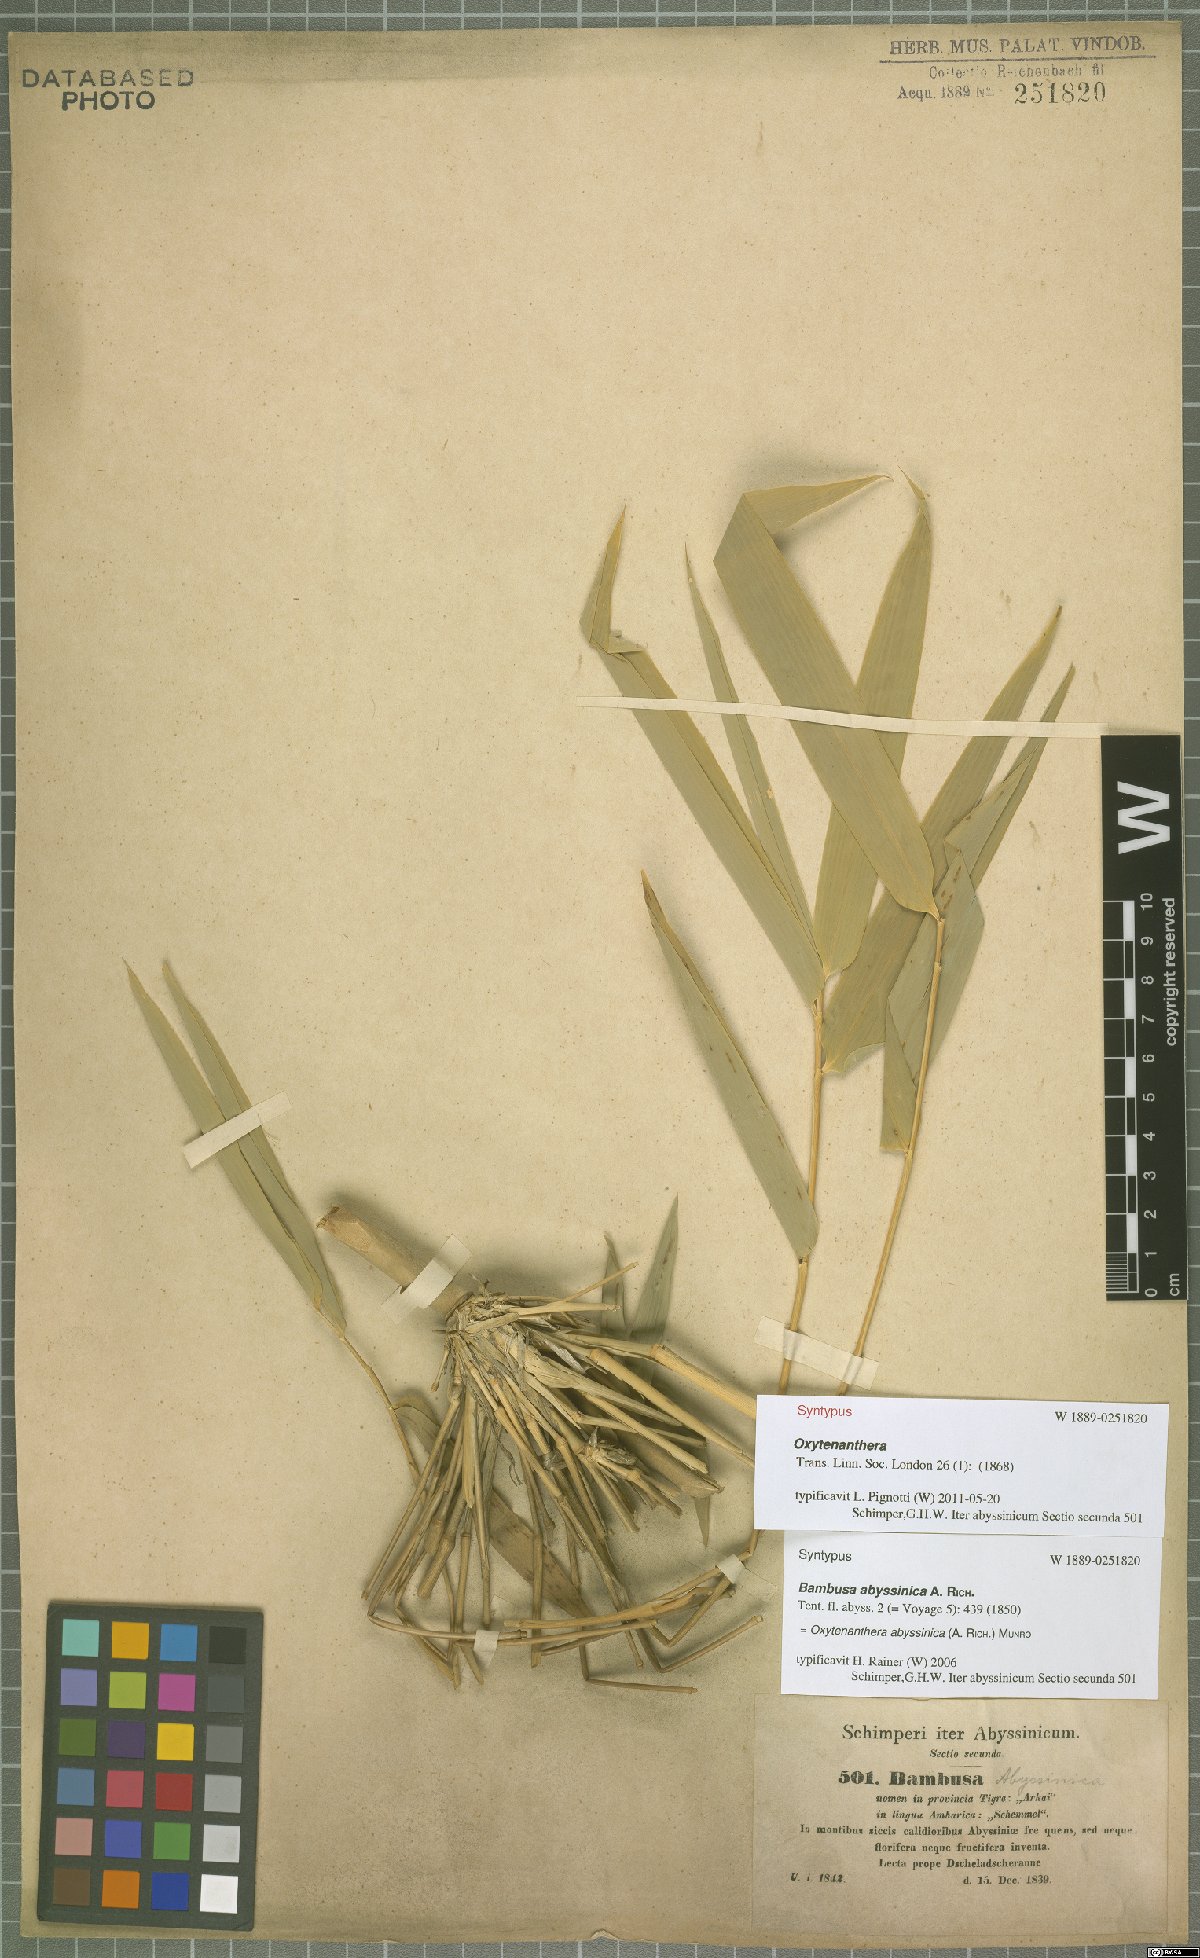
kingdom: Plantae
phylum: Tracheophyta
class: Liliopsida
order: Poales
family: Poaceae
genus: Oxytenanthera
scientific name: Oxytenanthera abyssinica
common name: Wine bamboo
